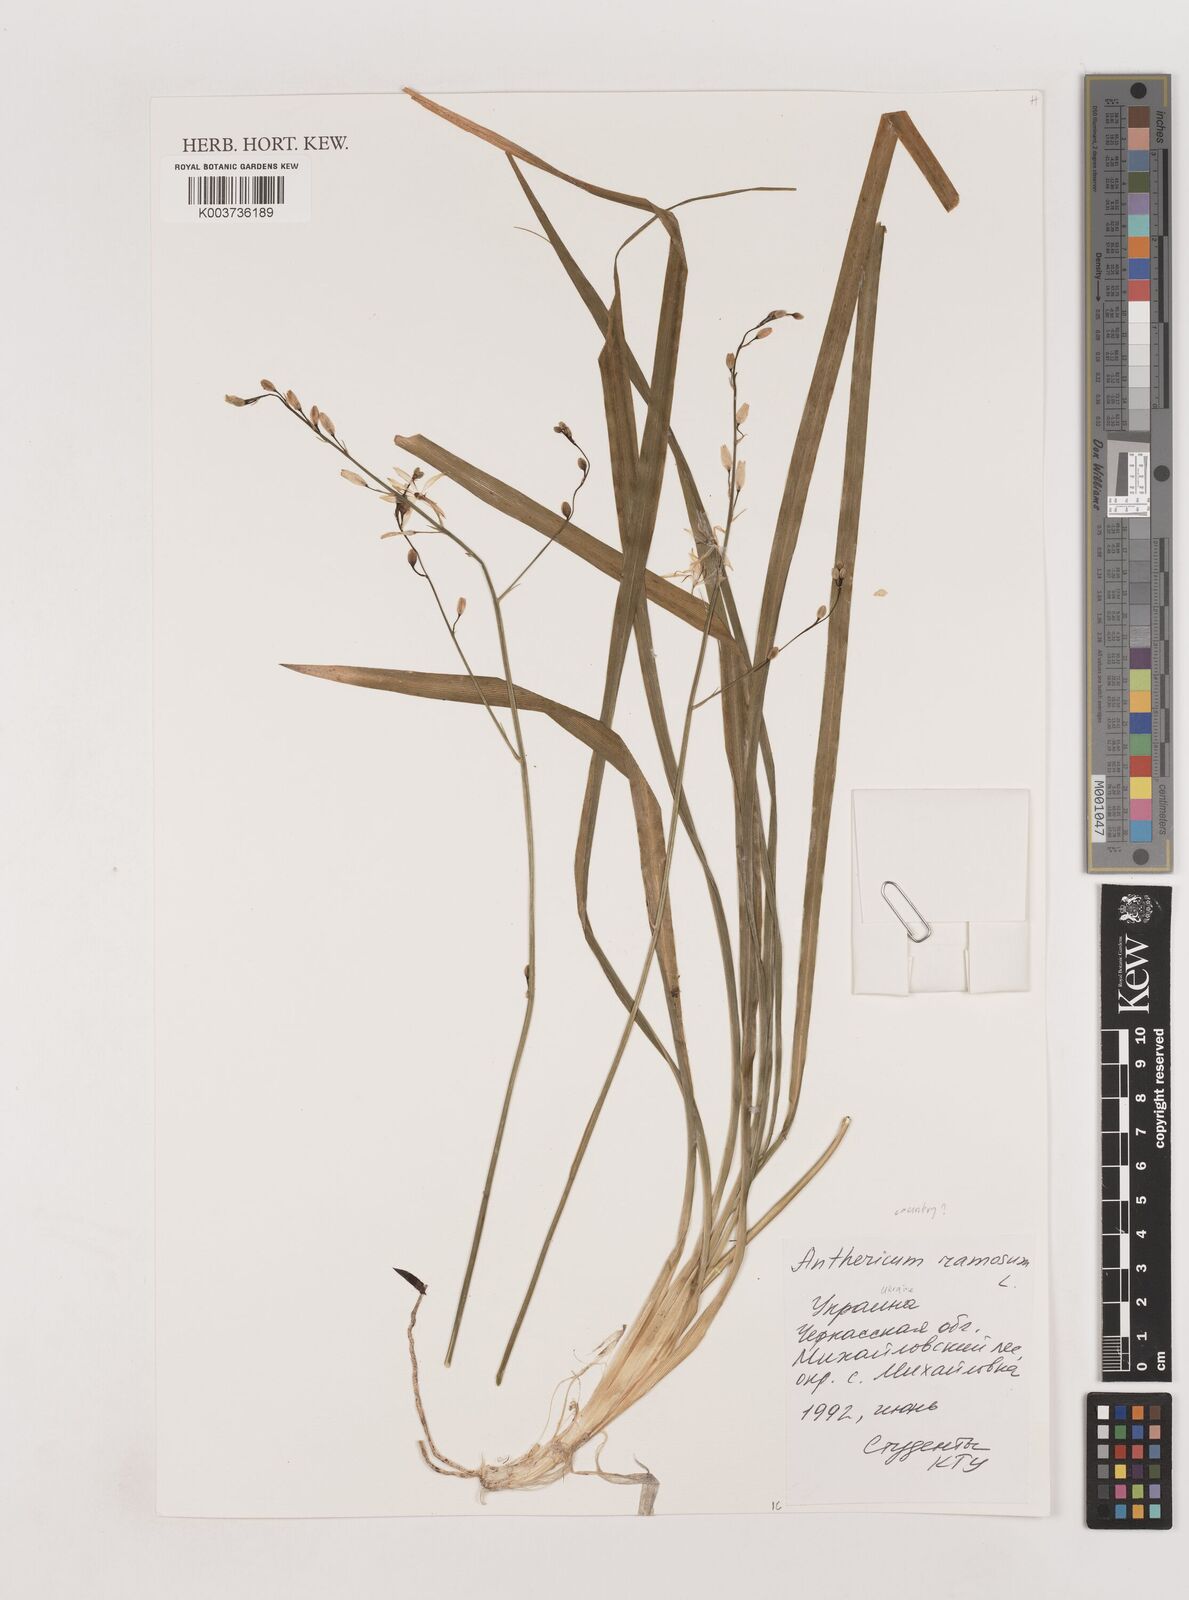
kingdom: Plantae
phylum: Tracheophyta
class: Liliopsida
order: Asparagales
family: Asparagaceae
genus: Anthericum
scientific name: Anthericum
